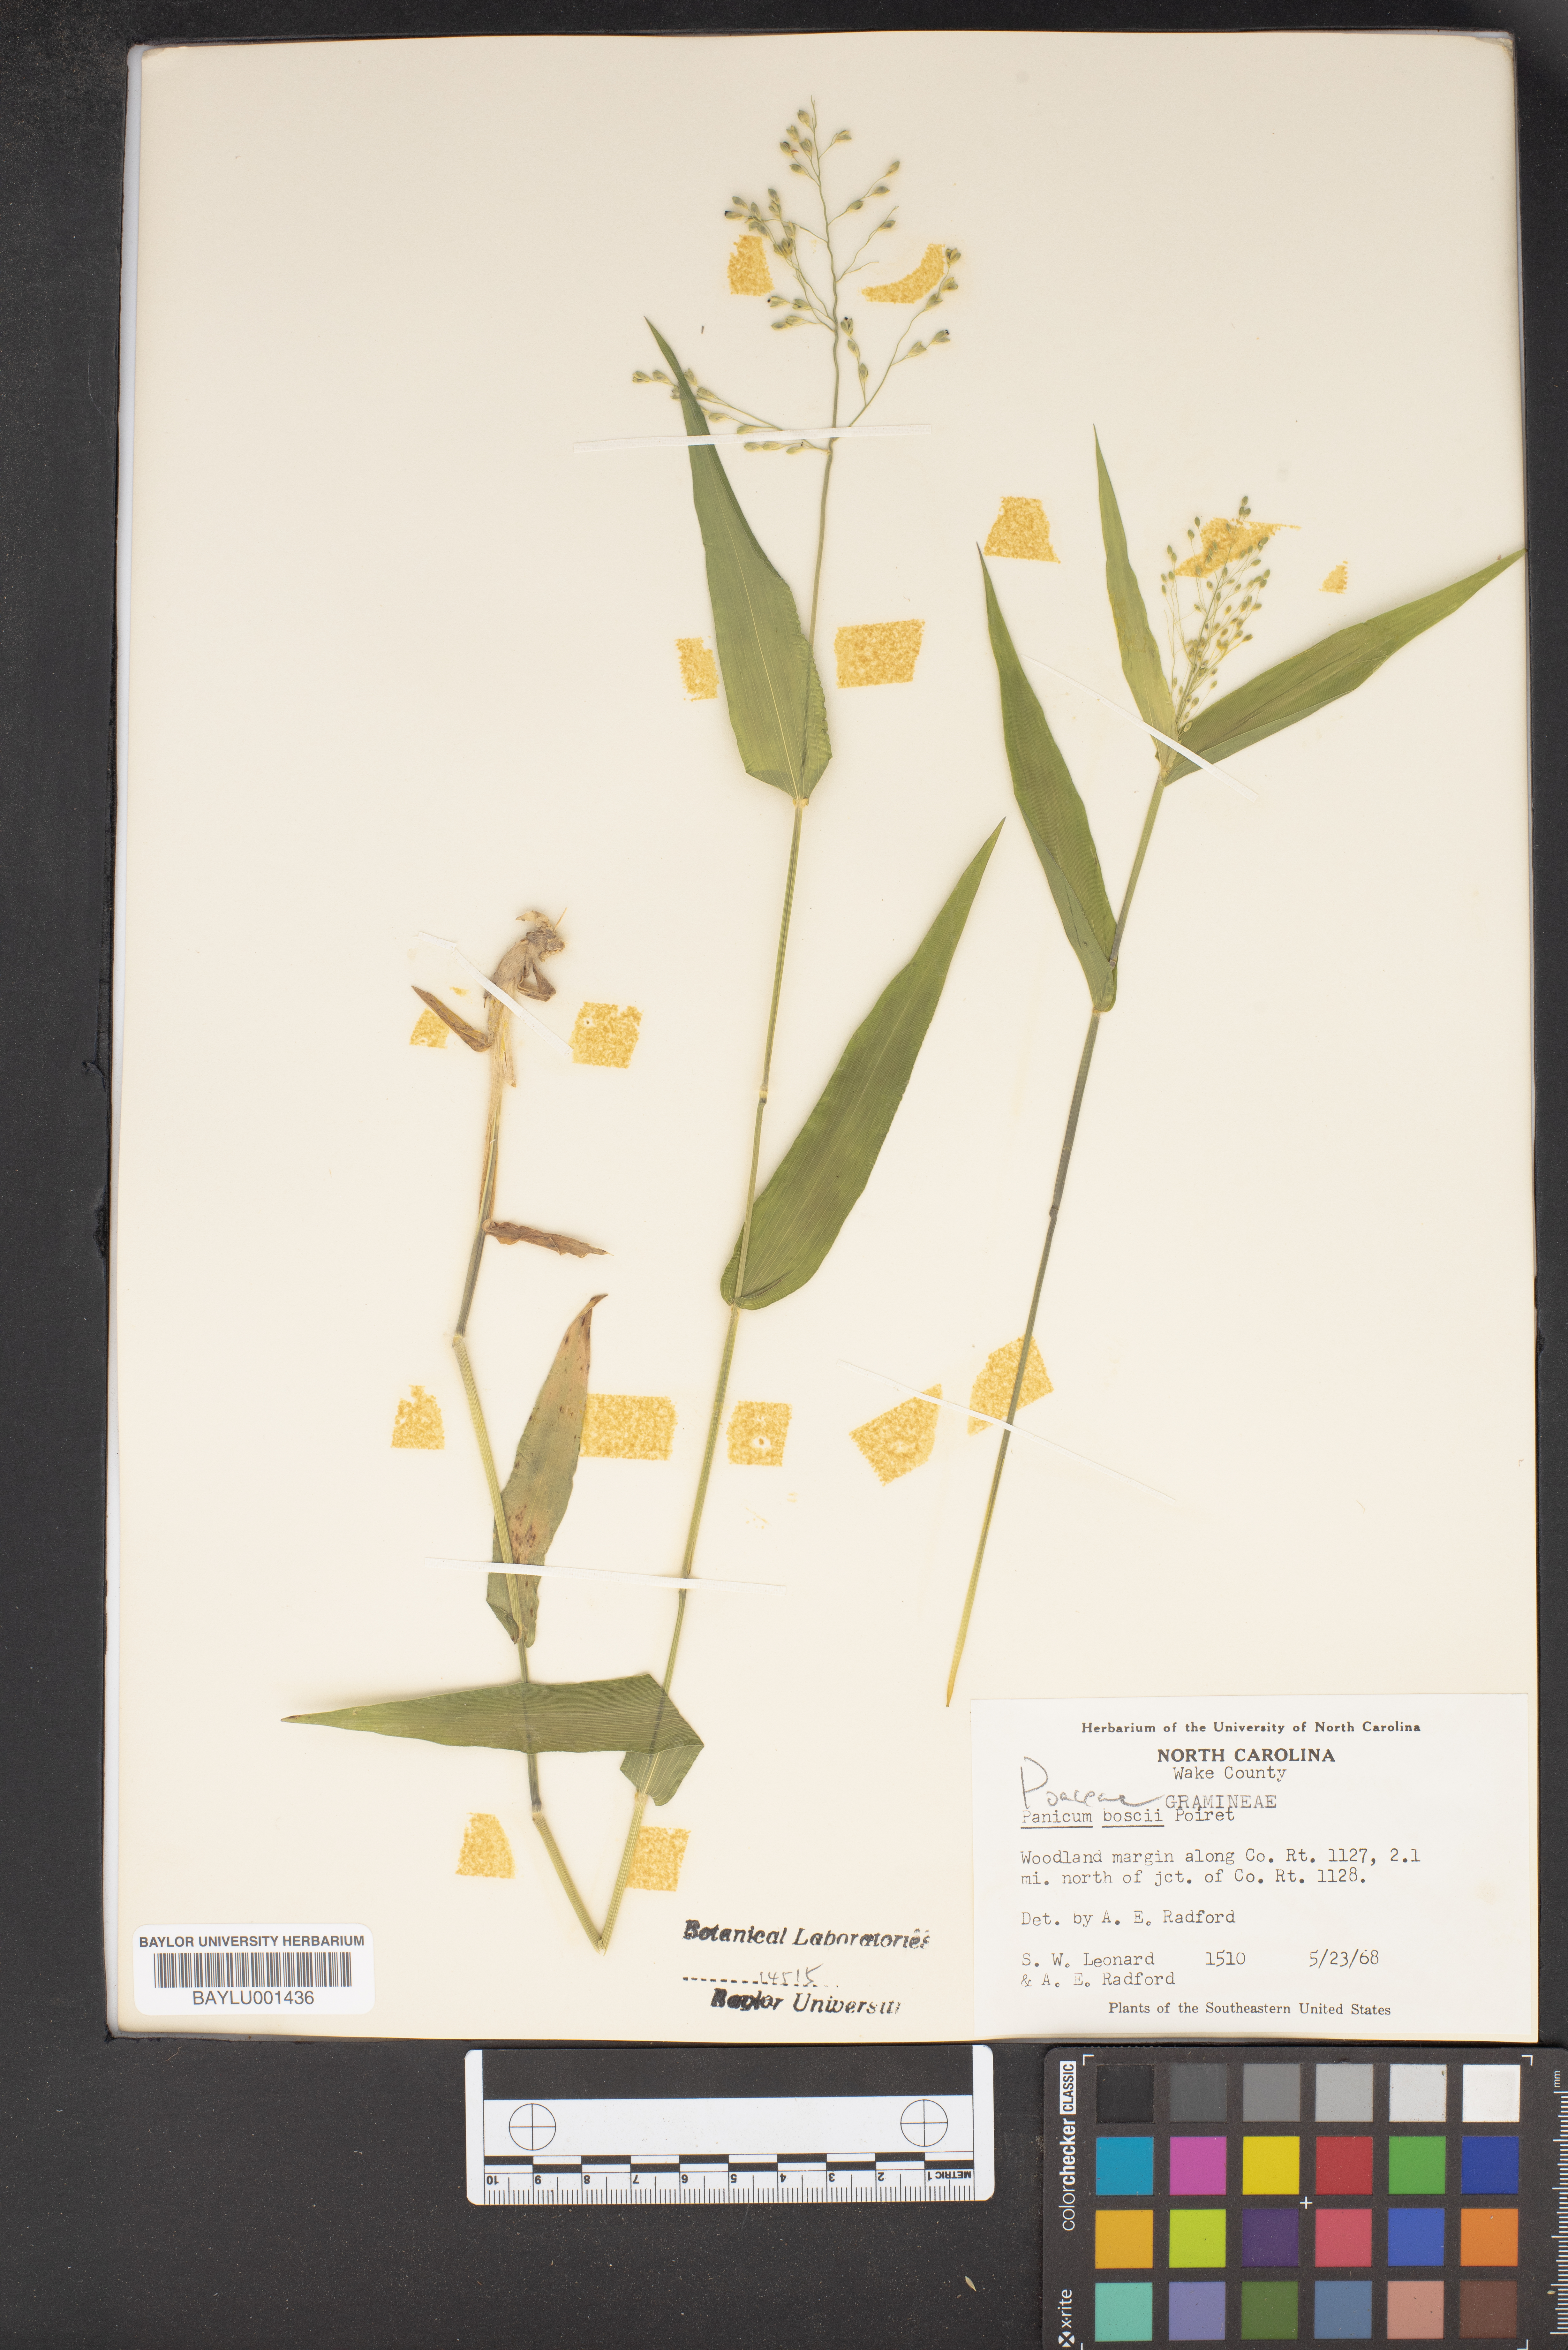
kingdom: Plantae
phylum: Tracheophyta
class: Liliopsida
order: Poales
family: Poaceae
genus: Dichanthelium
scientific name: Dichanthelium boscii
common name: Bosc's panic grass
